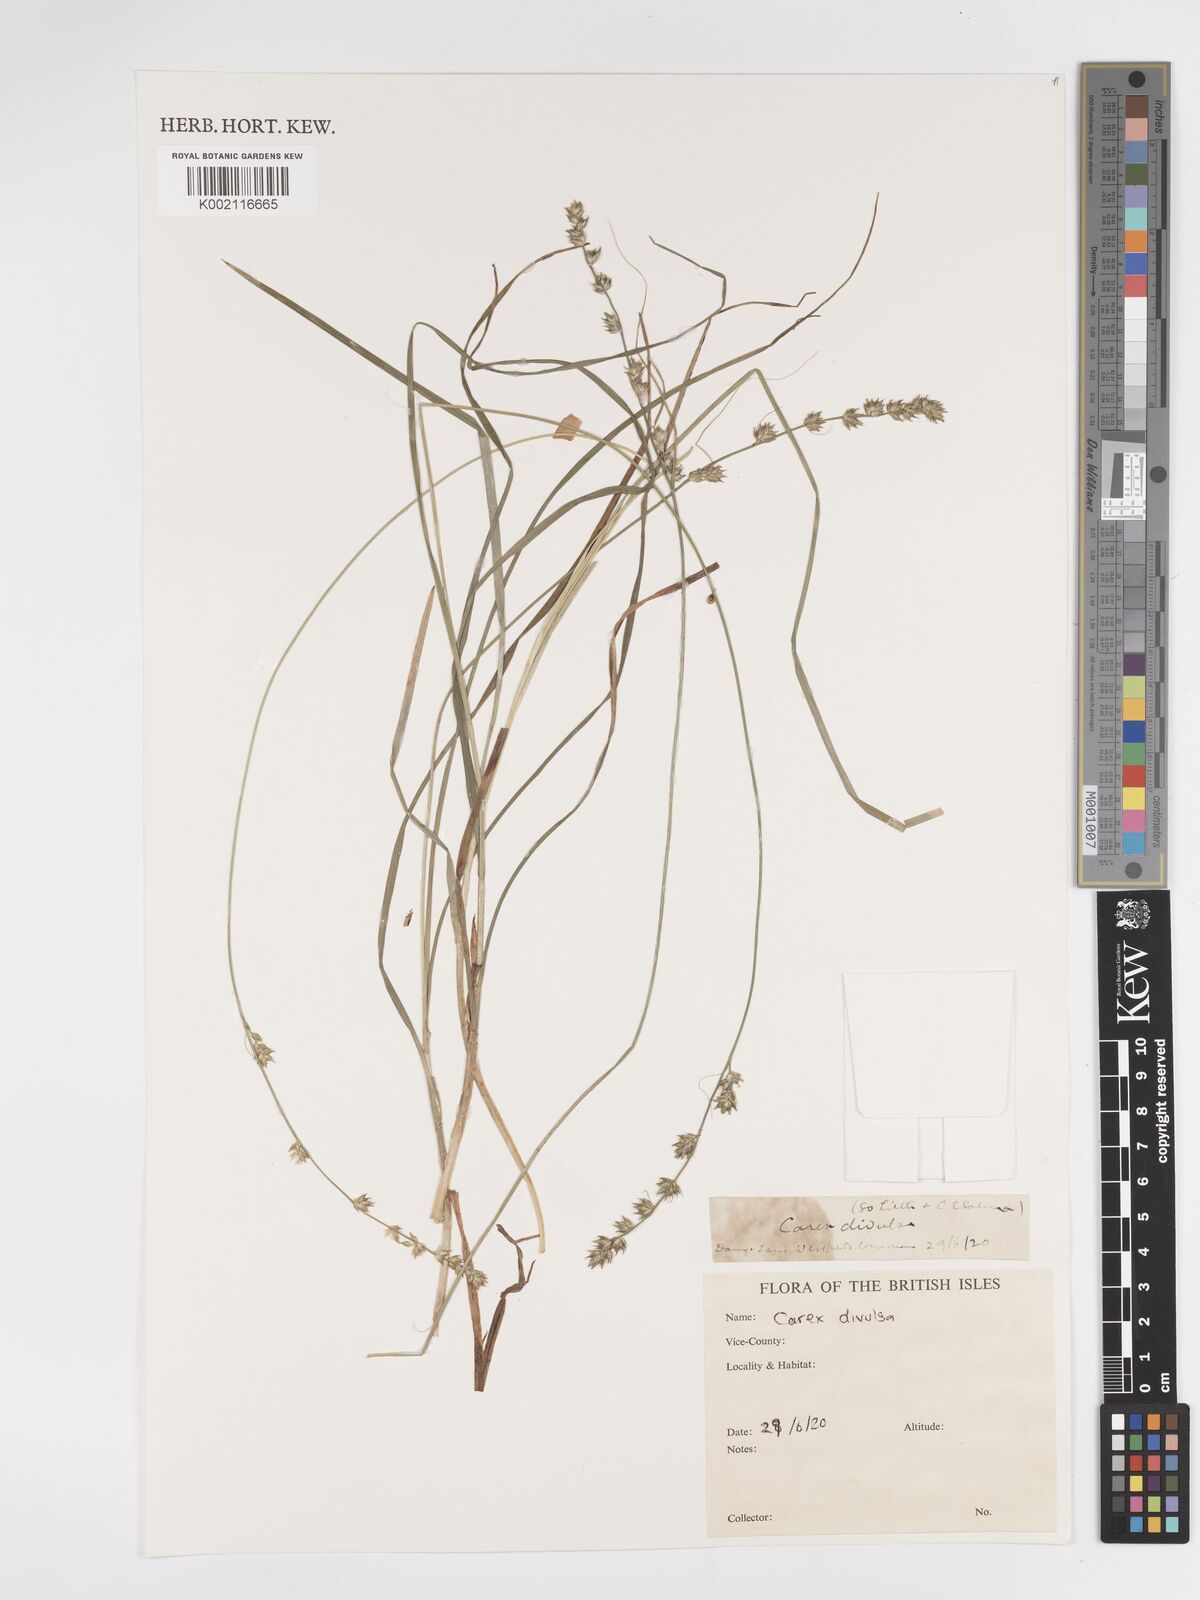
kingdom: Plantae
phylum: Tracheophyta
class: Liliopsida
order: Poales
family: Cyperaceae
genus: Carex
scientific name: Carex divulsa
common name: Grassland sedge
